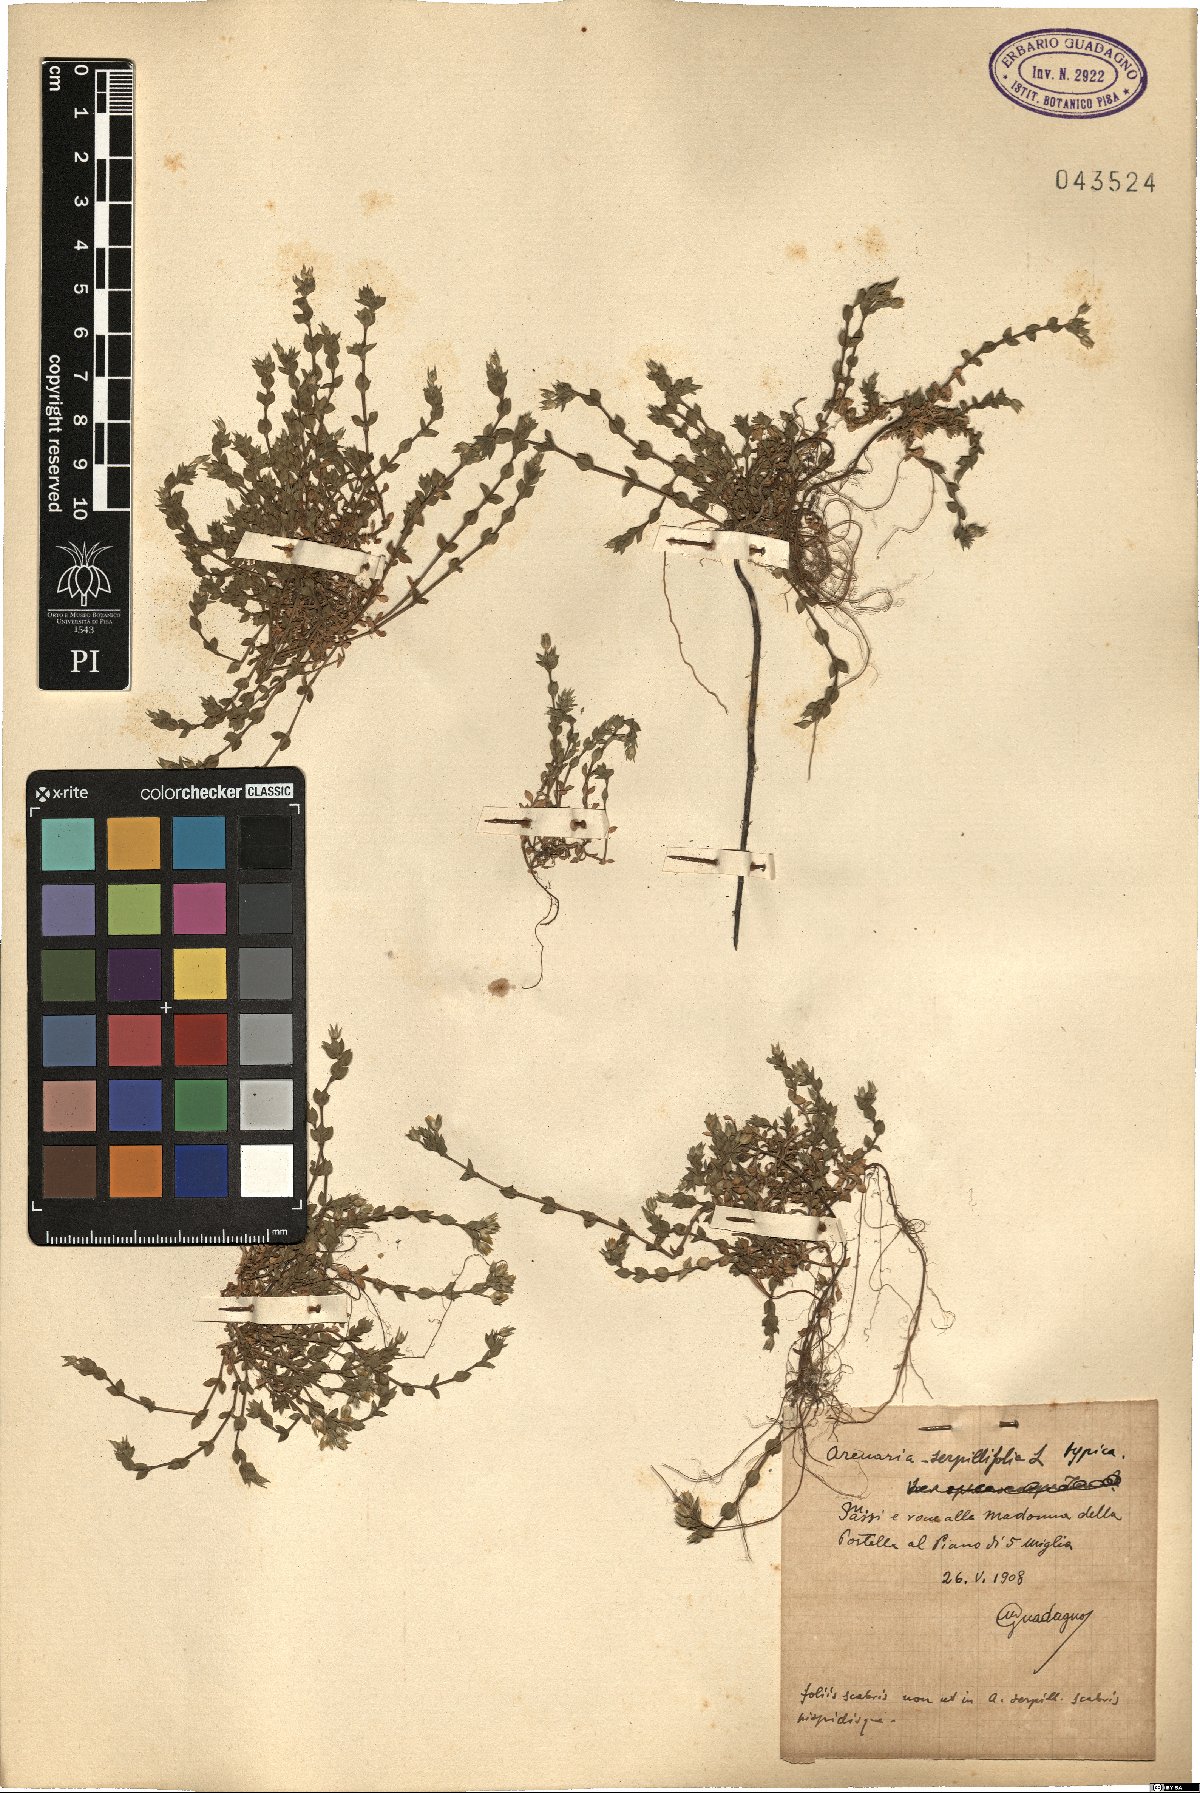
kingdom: Plantae
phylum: Tracheophyta
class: Magnoliopsida
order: Caryophyllales
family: Caryophyllaceae
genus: Arenaria
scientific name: Arenaria serpyllifolia
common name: Thyme-leaved sandwort
